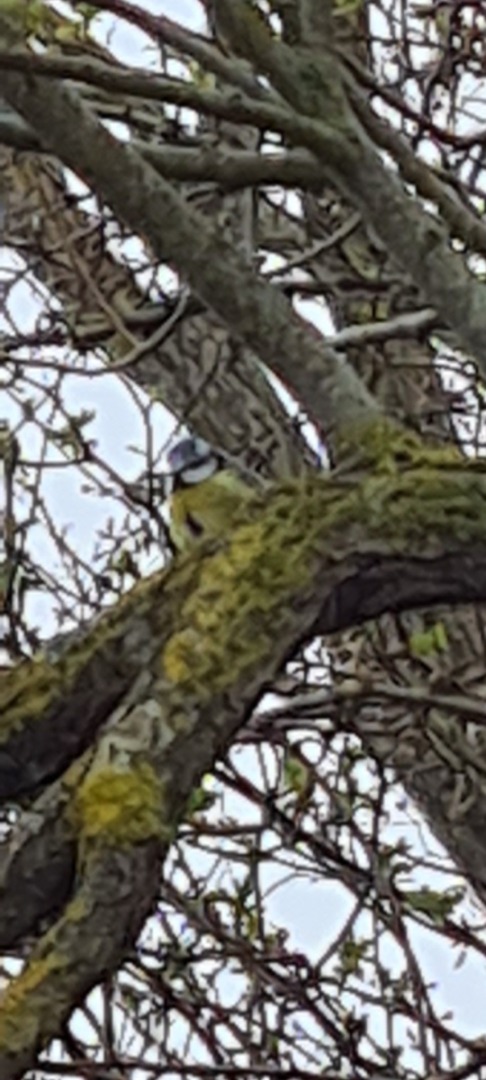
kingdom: Animalia
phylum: Chordata
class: Aves
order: Passeriformes
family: Paridae
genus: Cyanistes
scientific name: Cyanistes caeruleus
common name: Blåmejse
